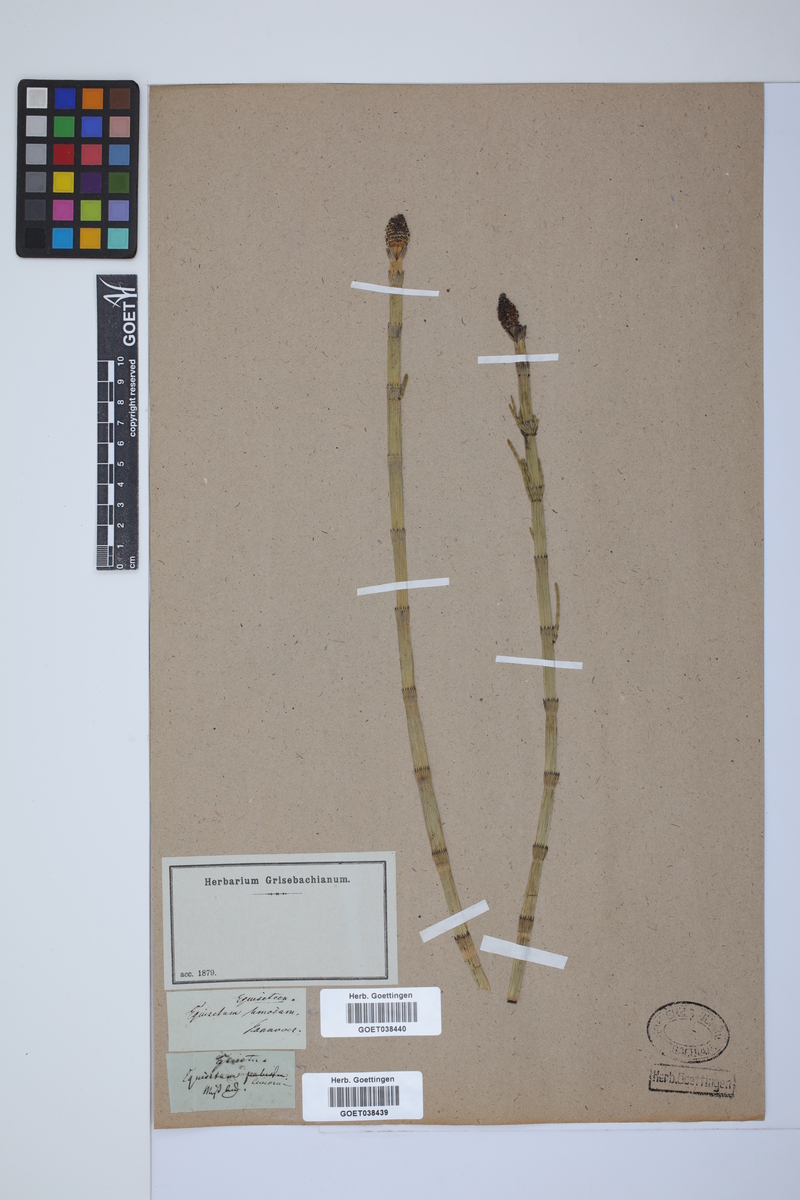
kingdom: Plantae
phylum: Tracheophyta
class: Polypodiopsida
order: Equisetales
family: Equisetaceae
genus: Equisetum
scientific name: Equisetum fluviatile
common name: Water horsetail
